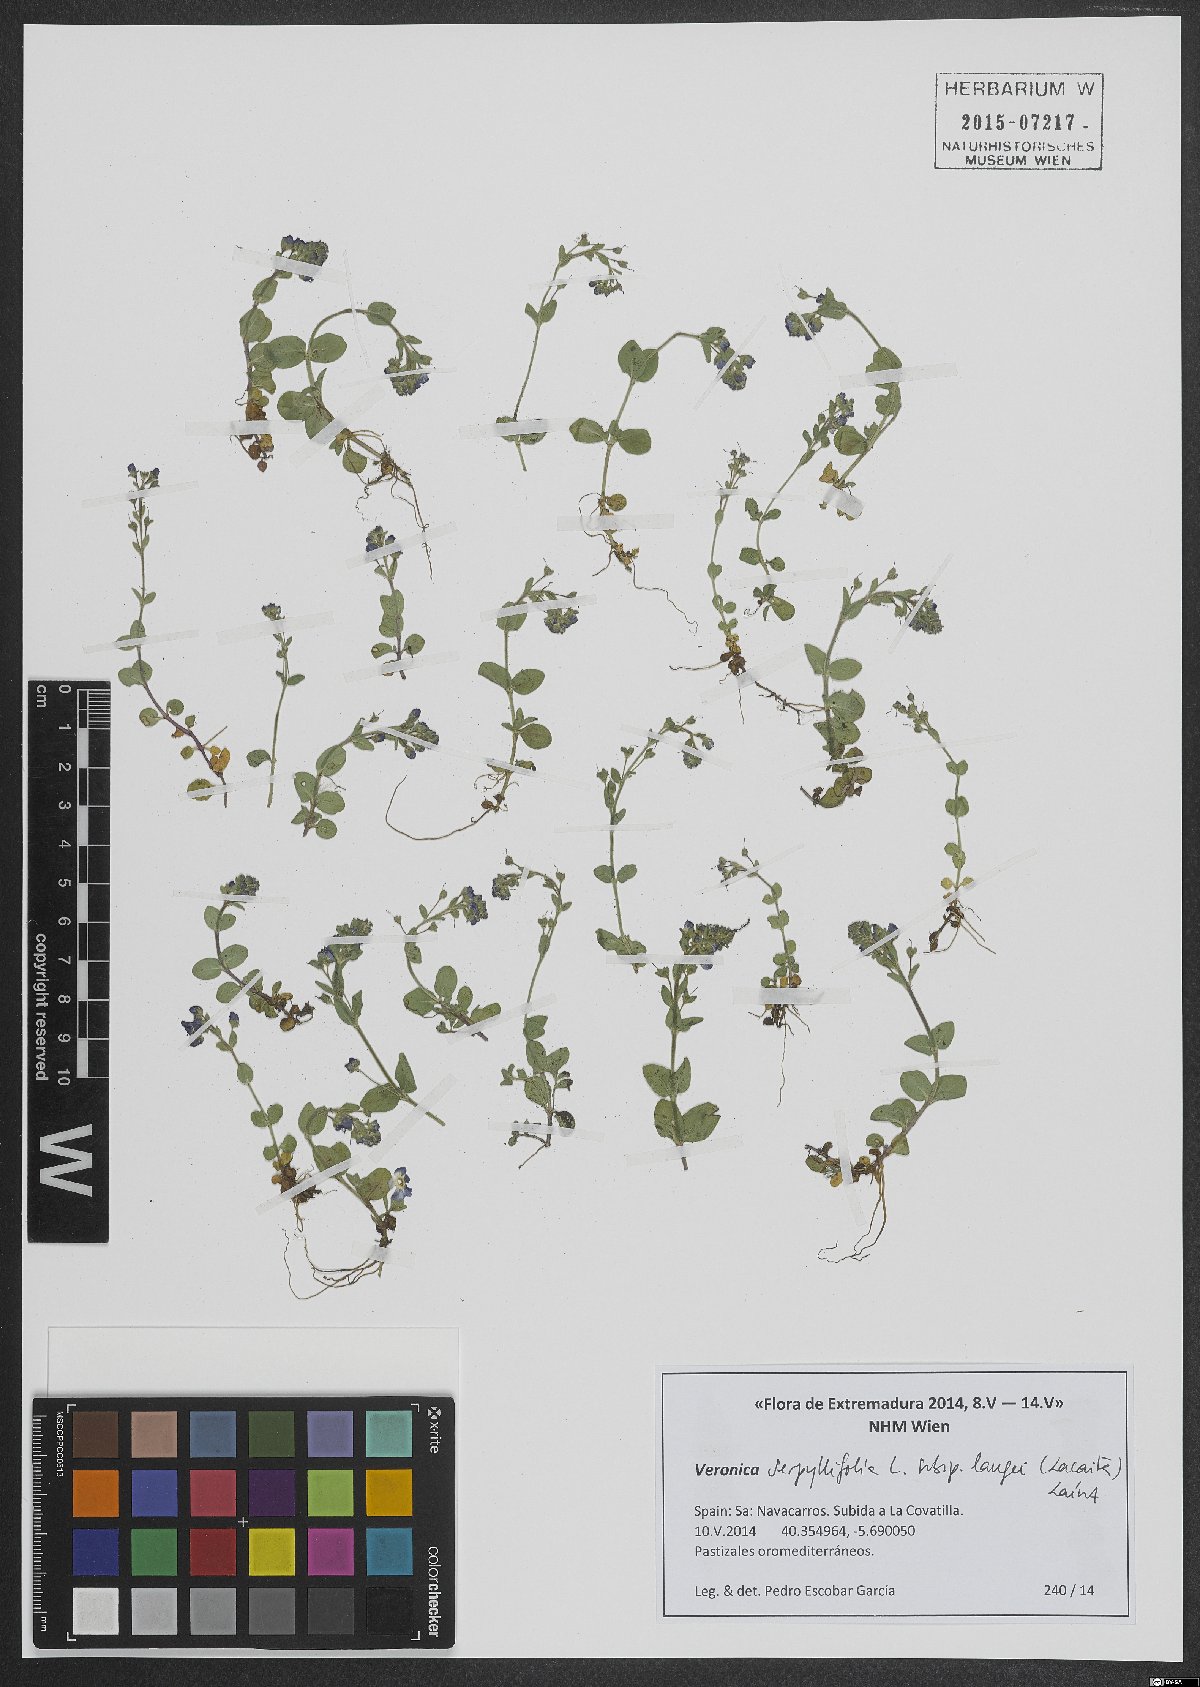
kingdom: Plantae
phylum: Tracheophyta
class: Magnoliopsida
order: Lamiales
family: Plantaginaceae
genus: Veronica
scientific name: Veronica nevadensis
